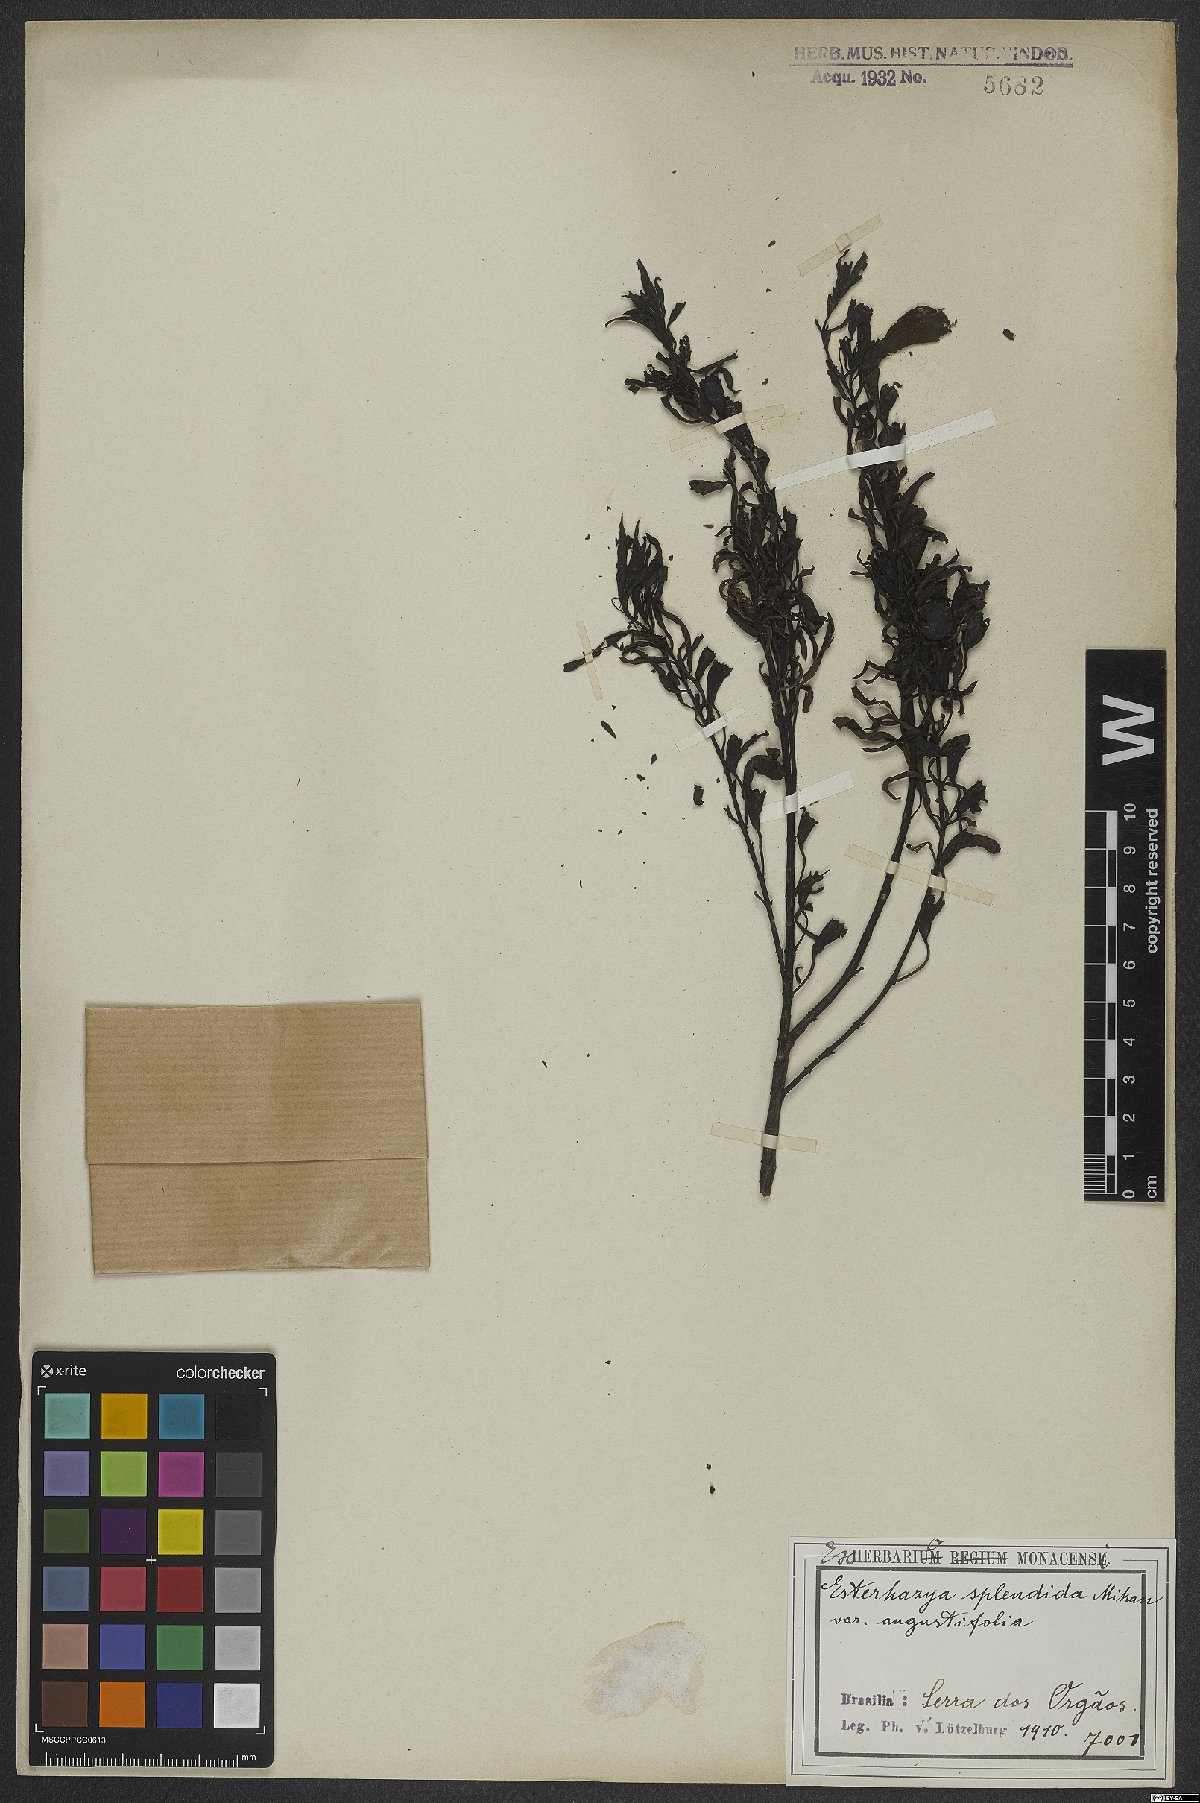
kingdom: Plantae
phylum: Tracheophyta
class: Magnoliopsida
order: Lamiales
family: Orobanchaceae
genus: Esterhazya
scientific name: Esterhazya splendida
